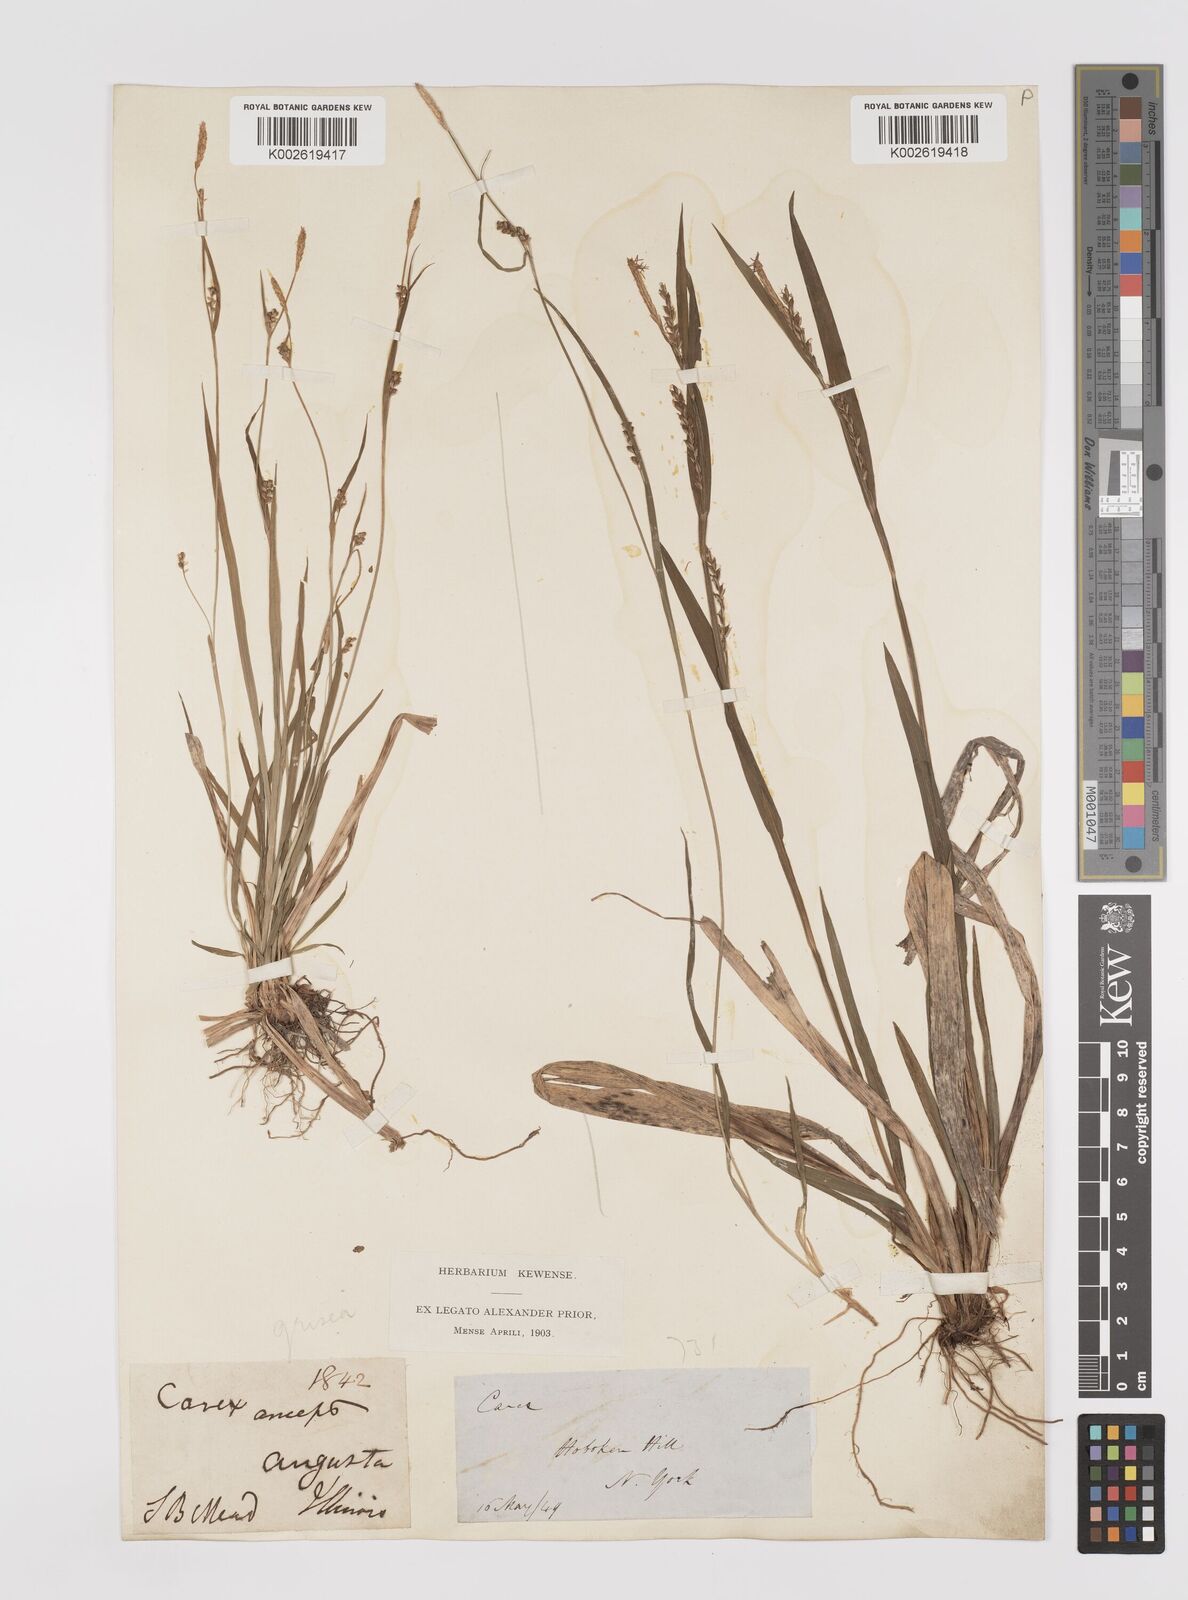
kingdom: Plantae
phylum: Tracheophyta
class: Liliopsida
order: Poales
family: Cyperaceae
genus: Carex
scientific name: Carex grisea
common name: Eastern narrow-leaved sedge
